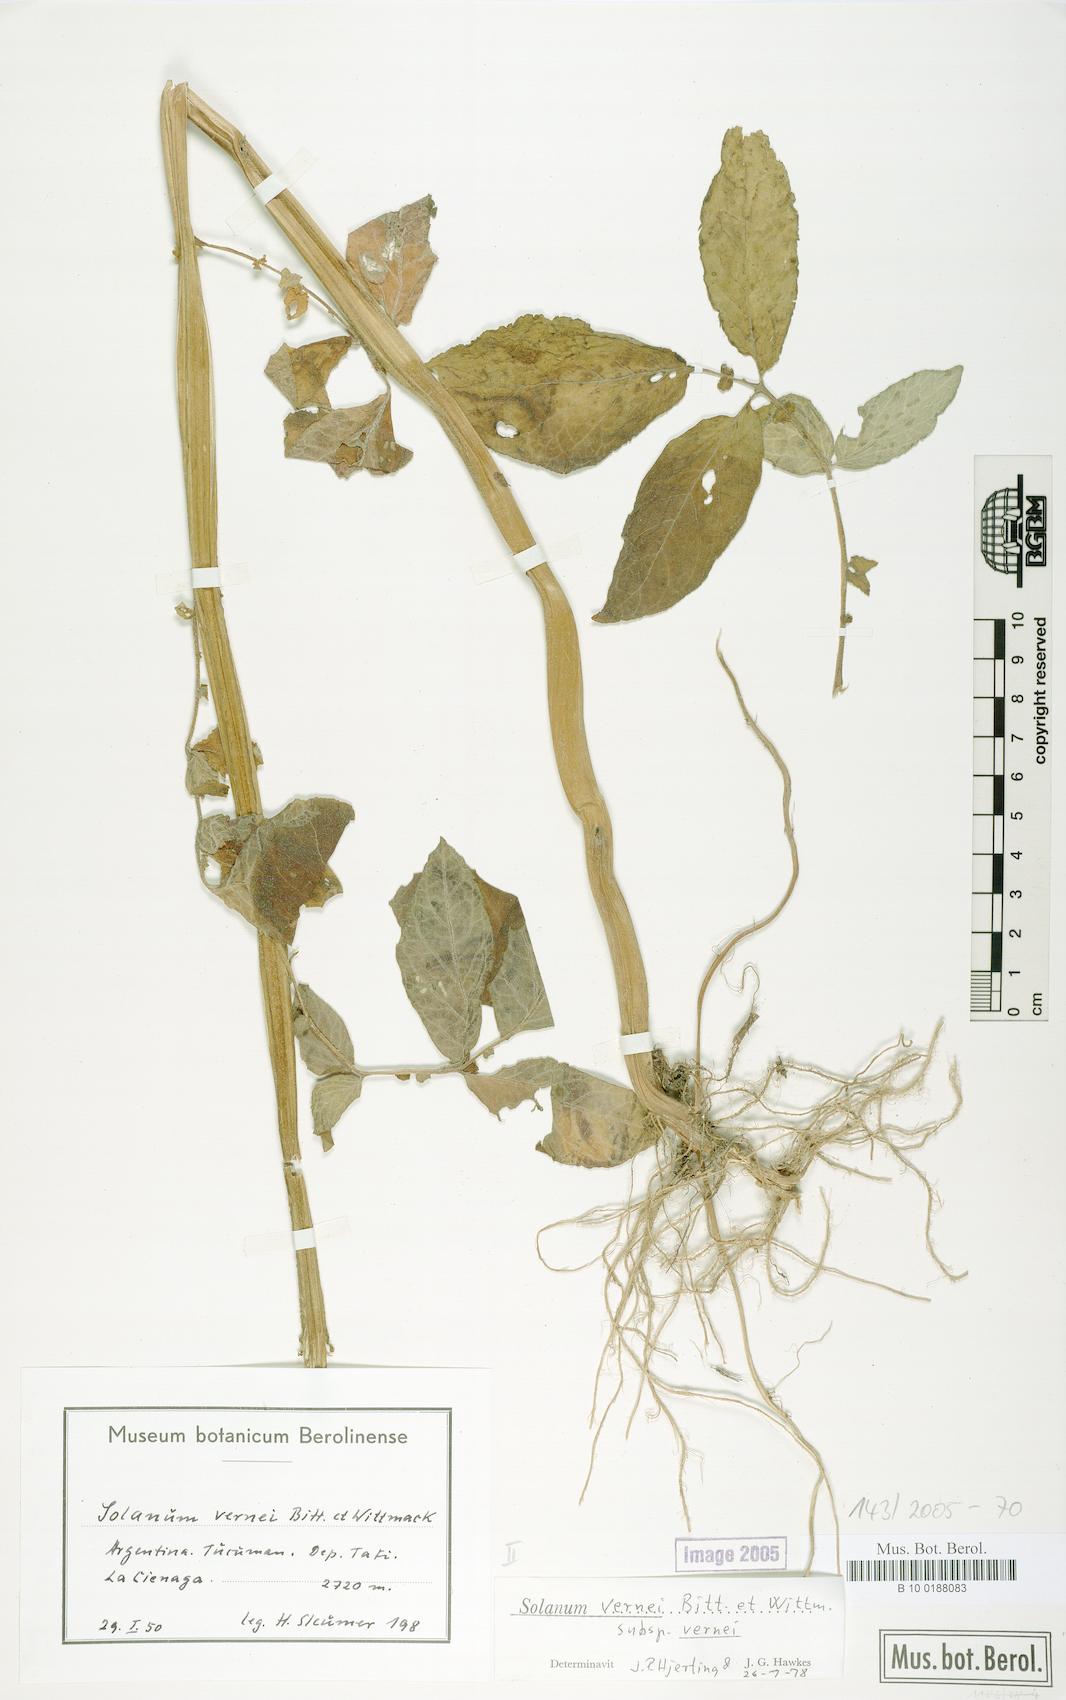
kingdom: Plantae
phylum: Tracheophyta
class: Magnoliopsida
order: Solanales
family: Solanaceae
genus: Solanum
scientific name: Solanum vernei
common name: Purple potato
